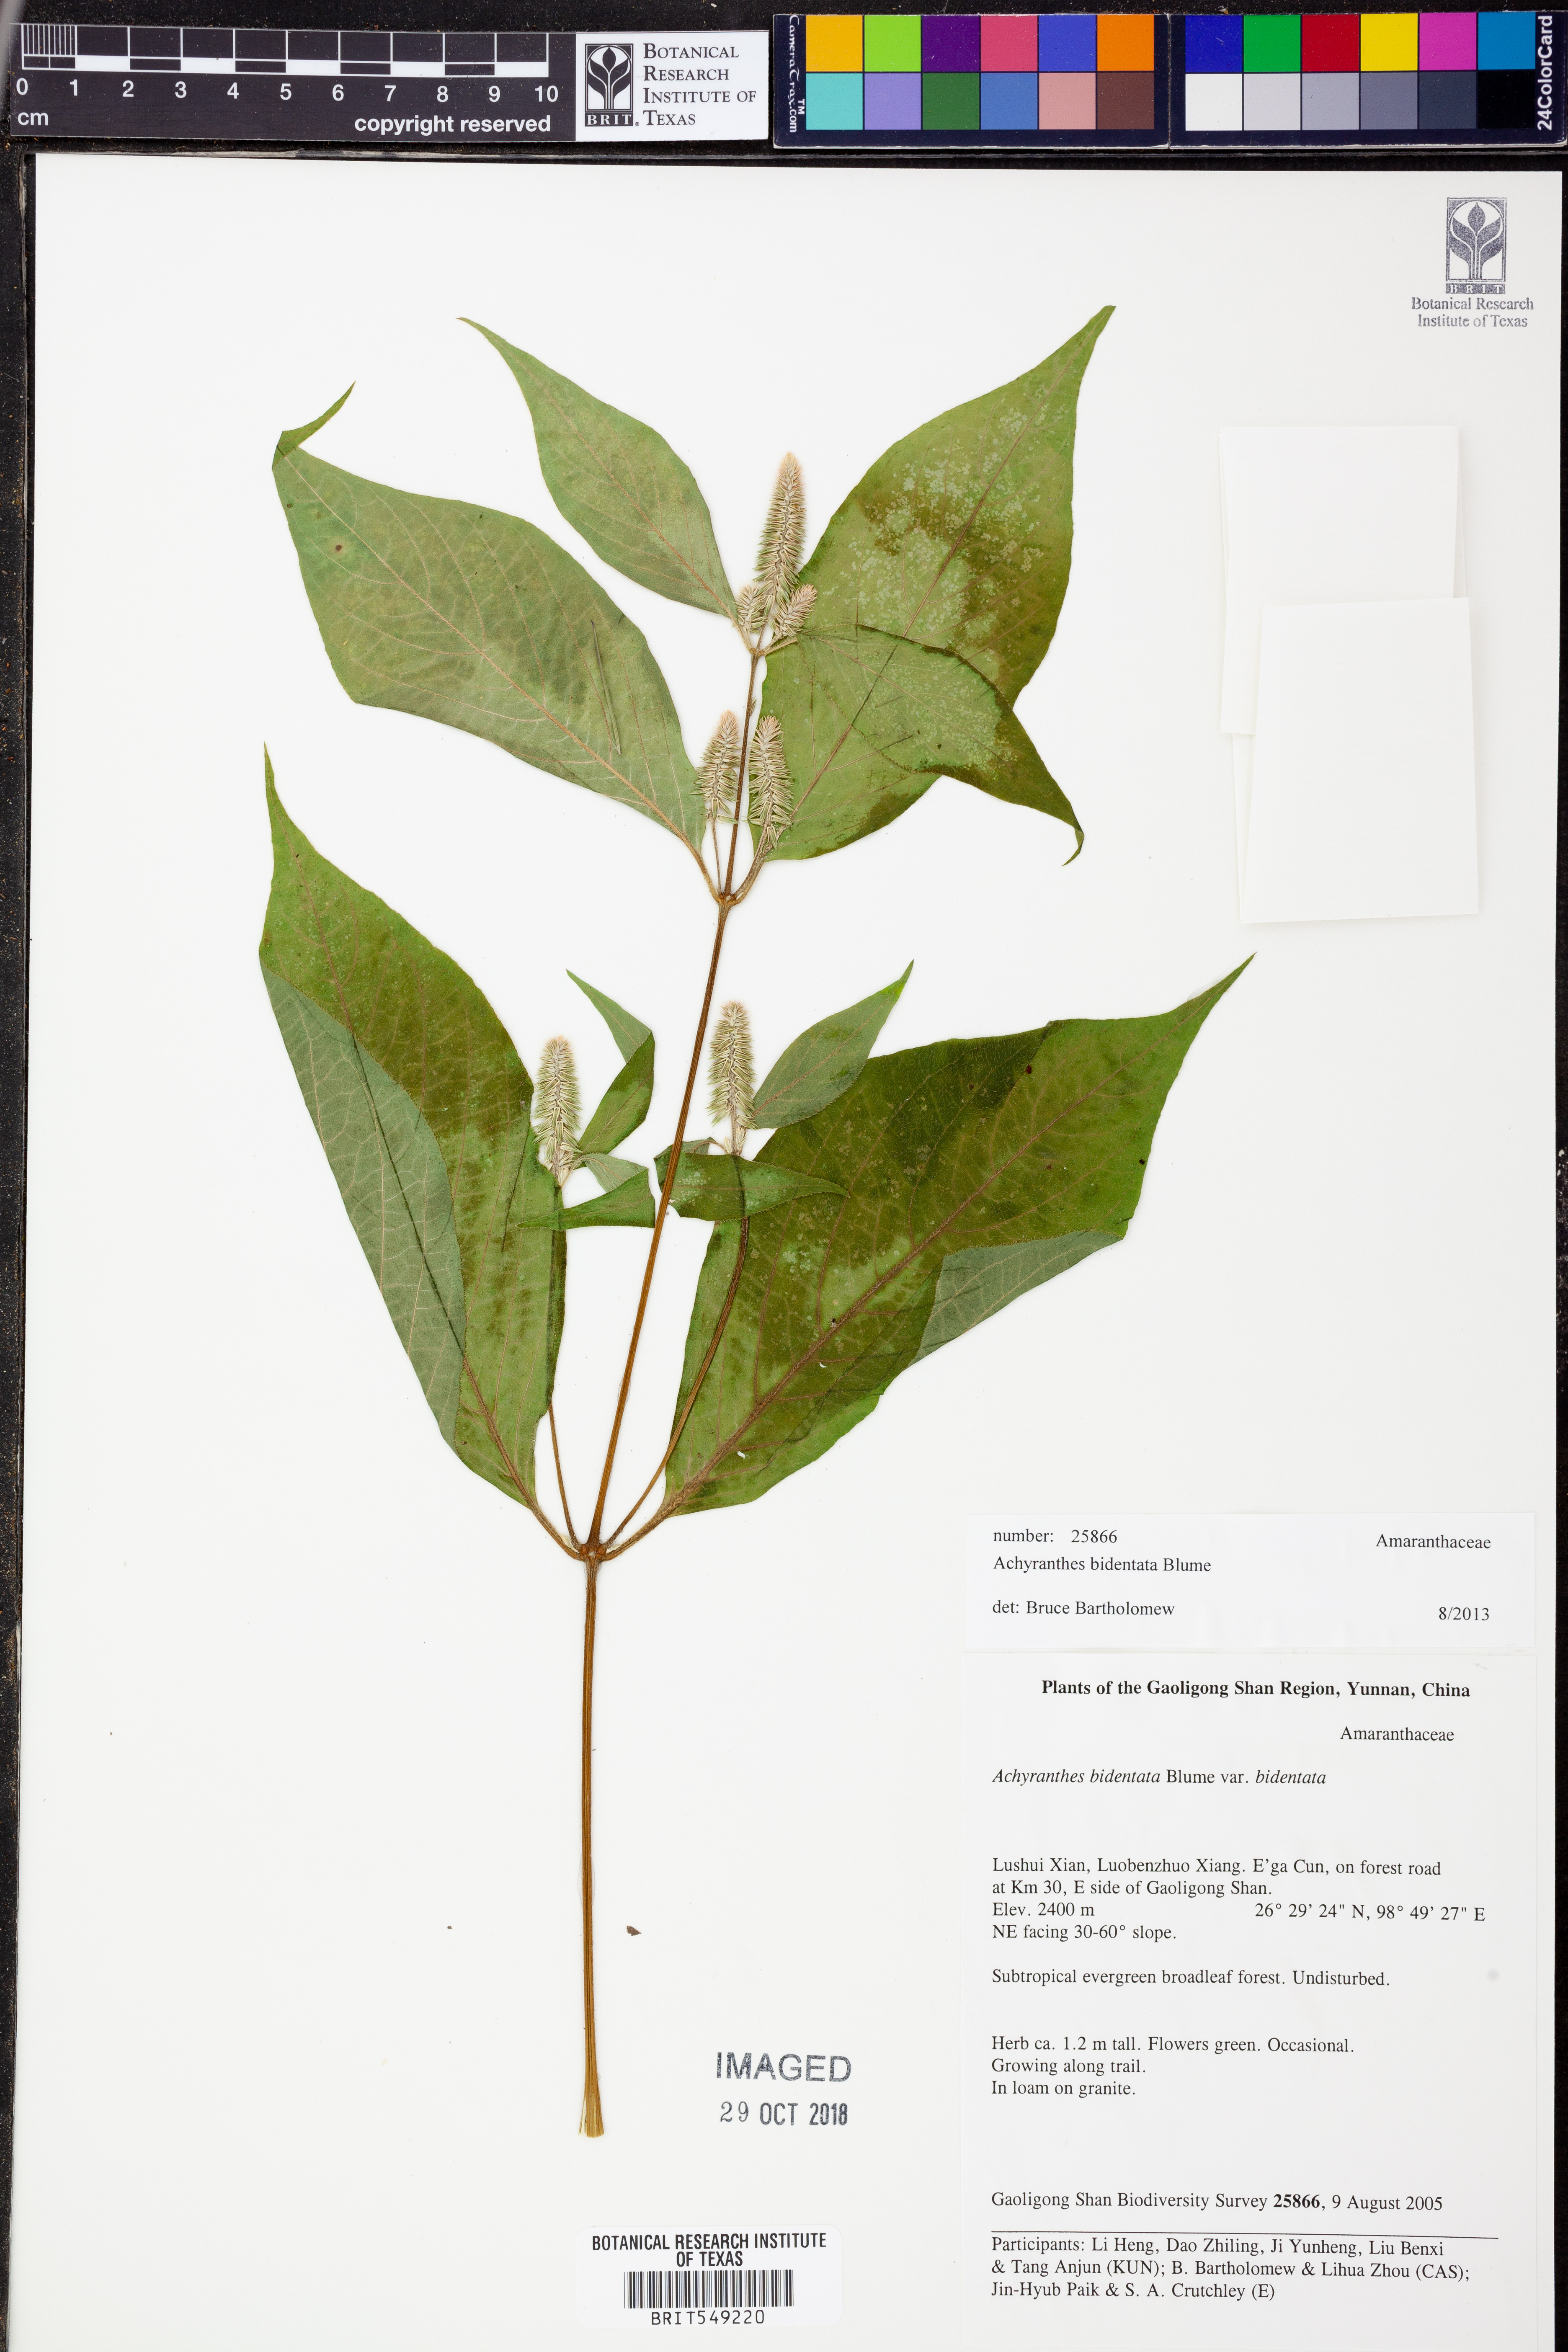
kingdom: Plantae
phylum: Tracheophyta
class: Magnoliopsida
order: Caryophyllales
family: Amaranthaceae
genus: Achyranthes
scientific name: Achyranthes bidentata
